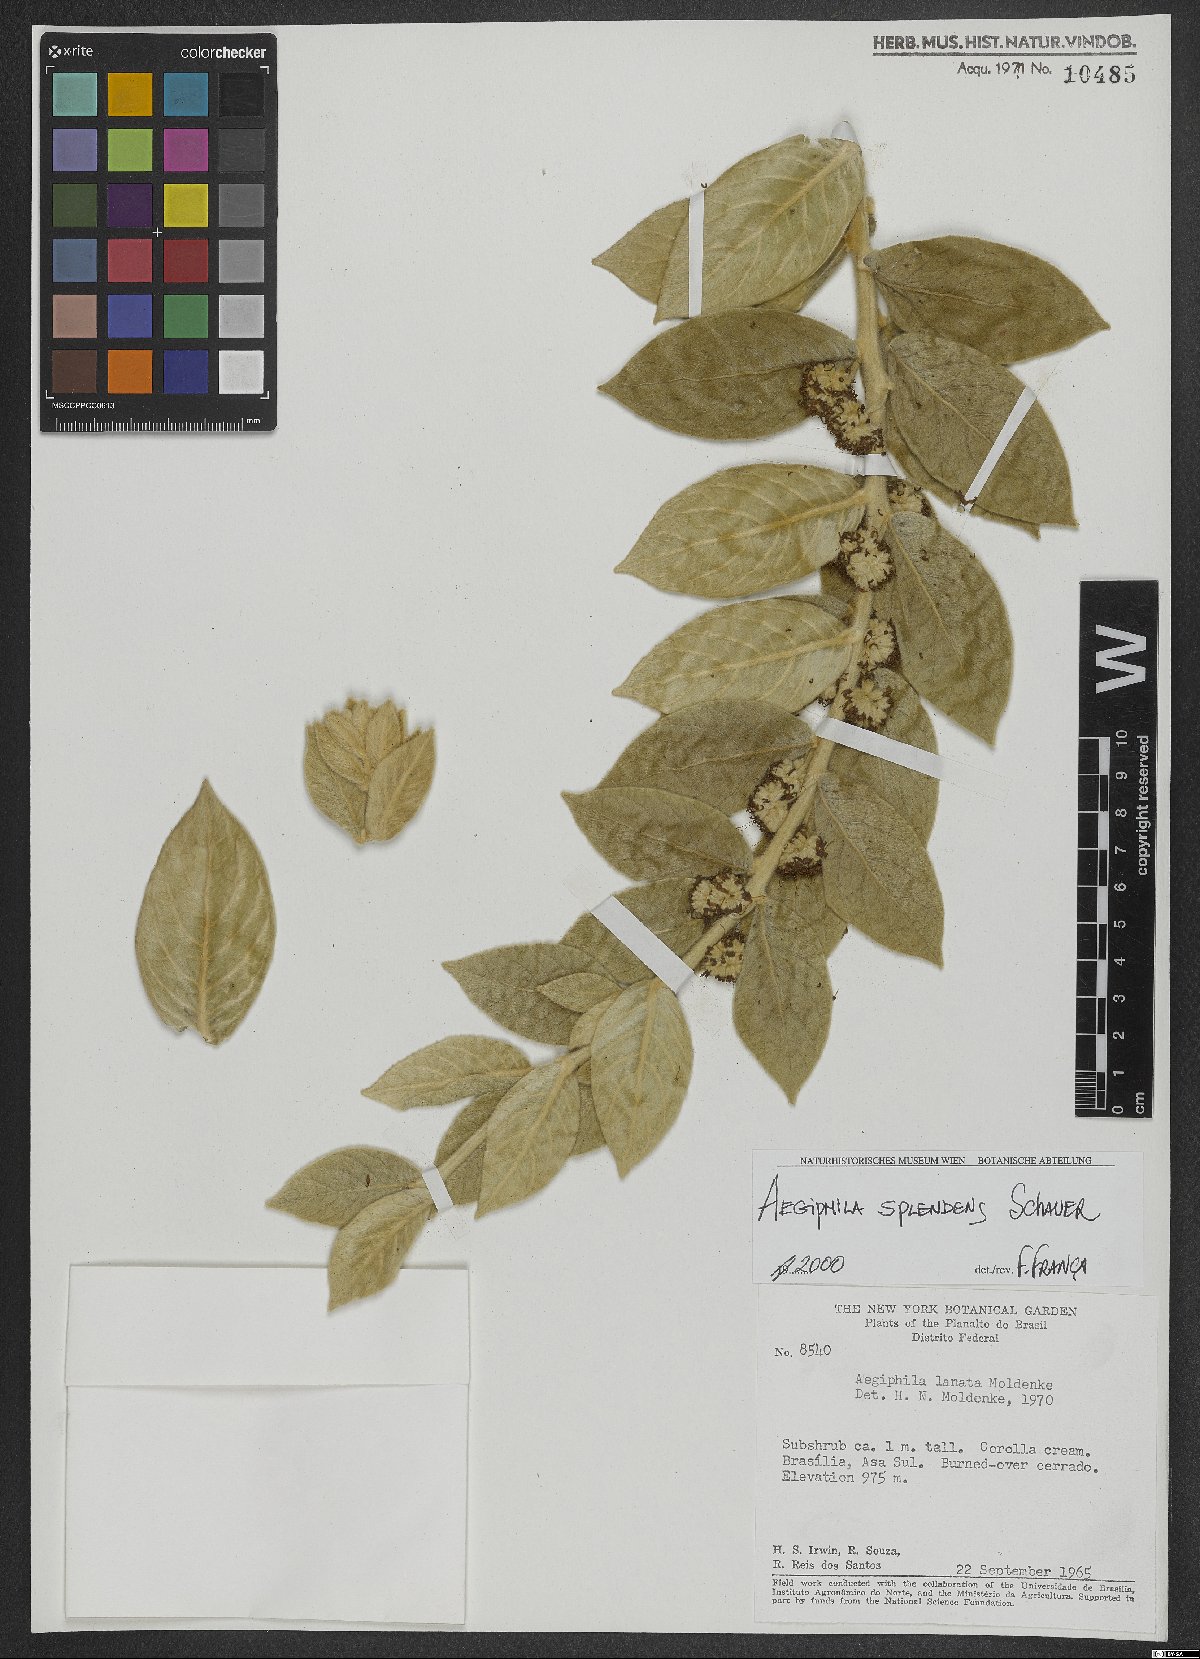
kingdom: Plantae
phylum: Tracheophyta
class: Magnoliopsida
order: Lamiales
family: Lamiaceae
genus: Aegiphila
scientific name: Aegiphila verticillata
